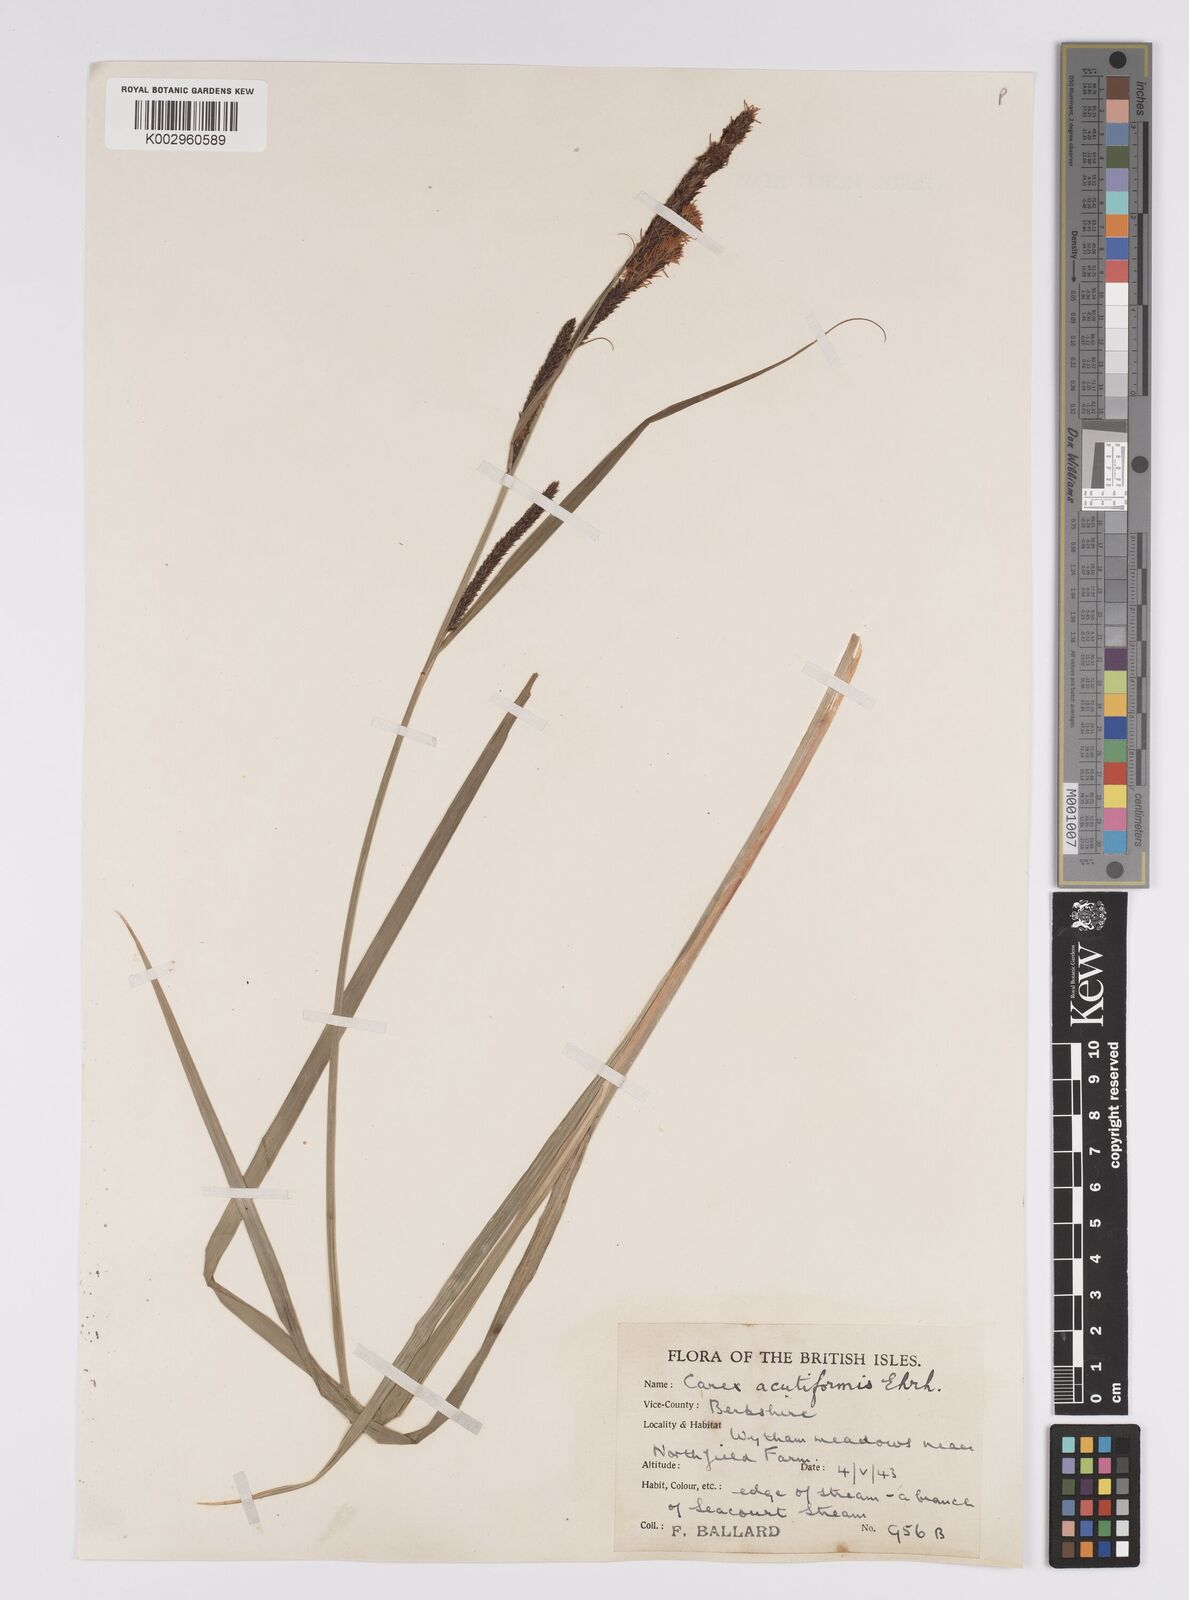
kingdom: Plantae
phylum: Tracheophyta
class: Liliopsida
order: Poales
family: Cyperaceae
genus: Carex
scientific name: Carex acutiformis
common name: Lesser pond-sedge
